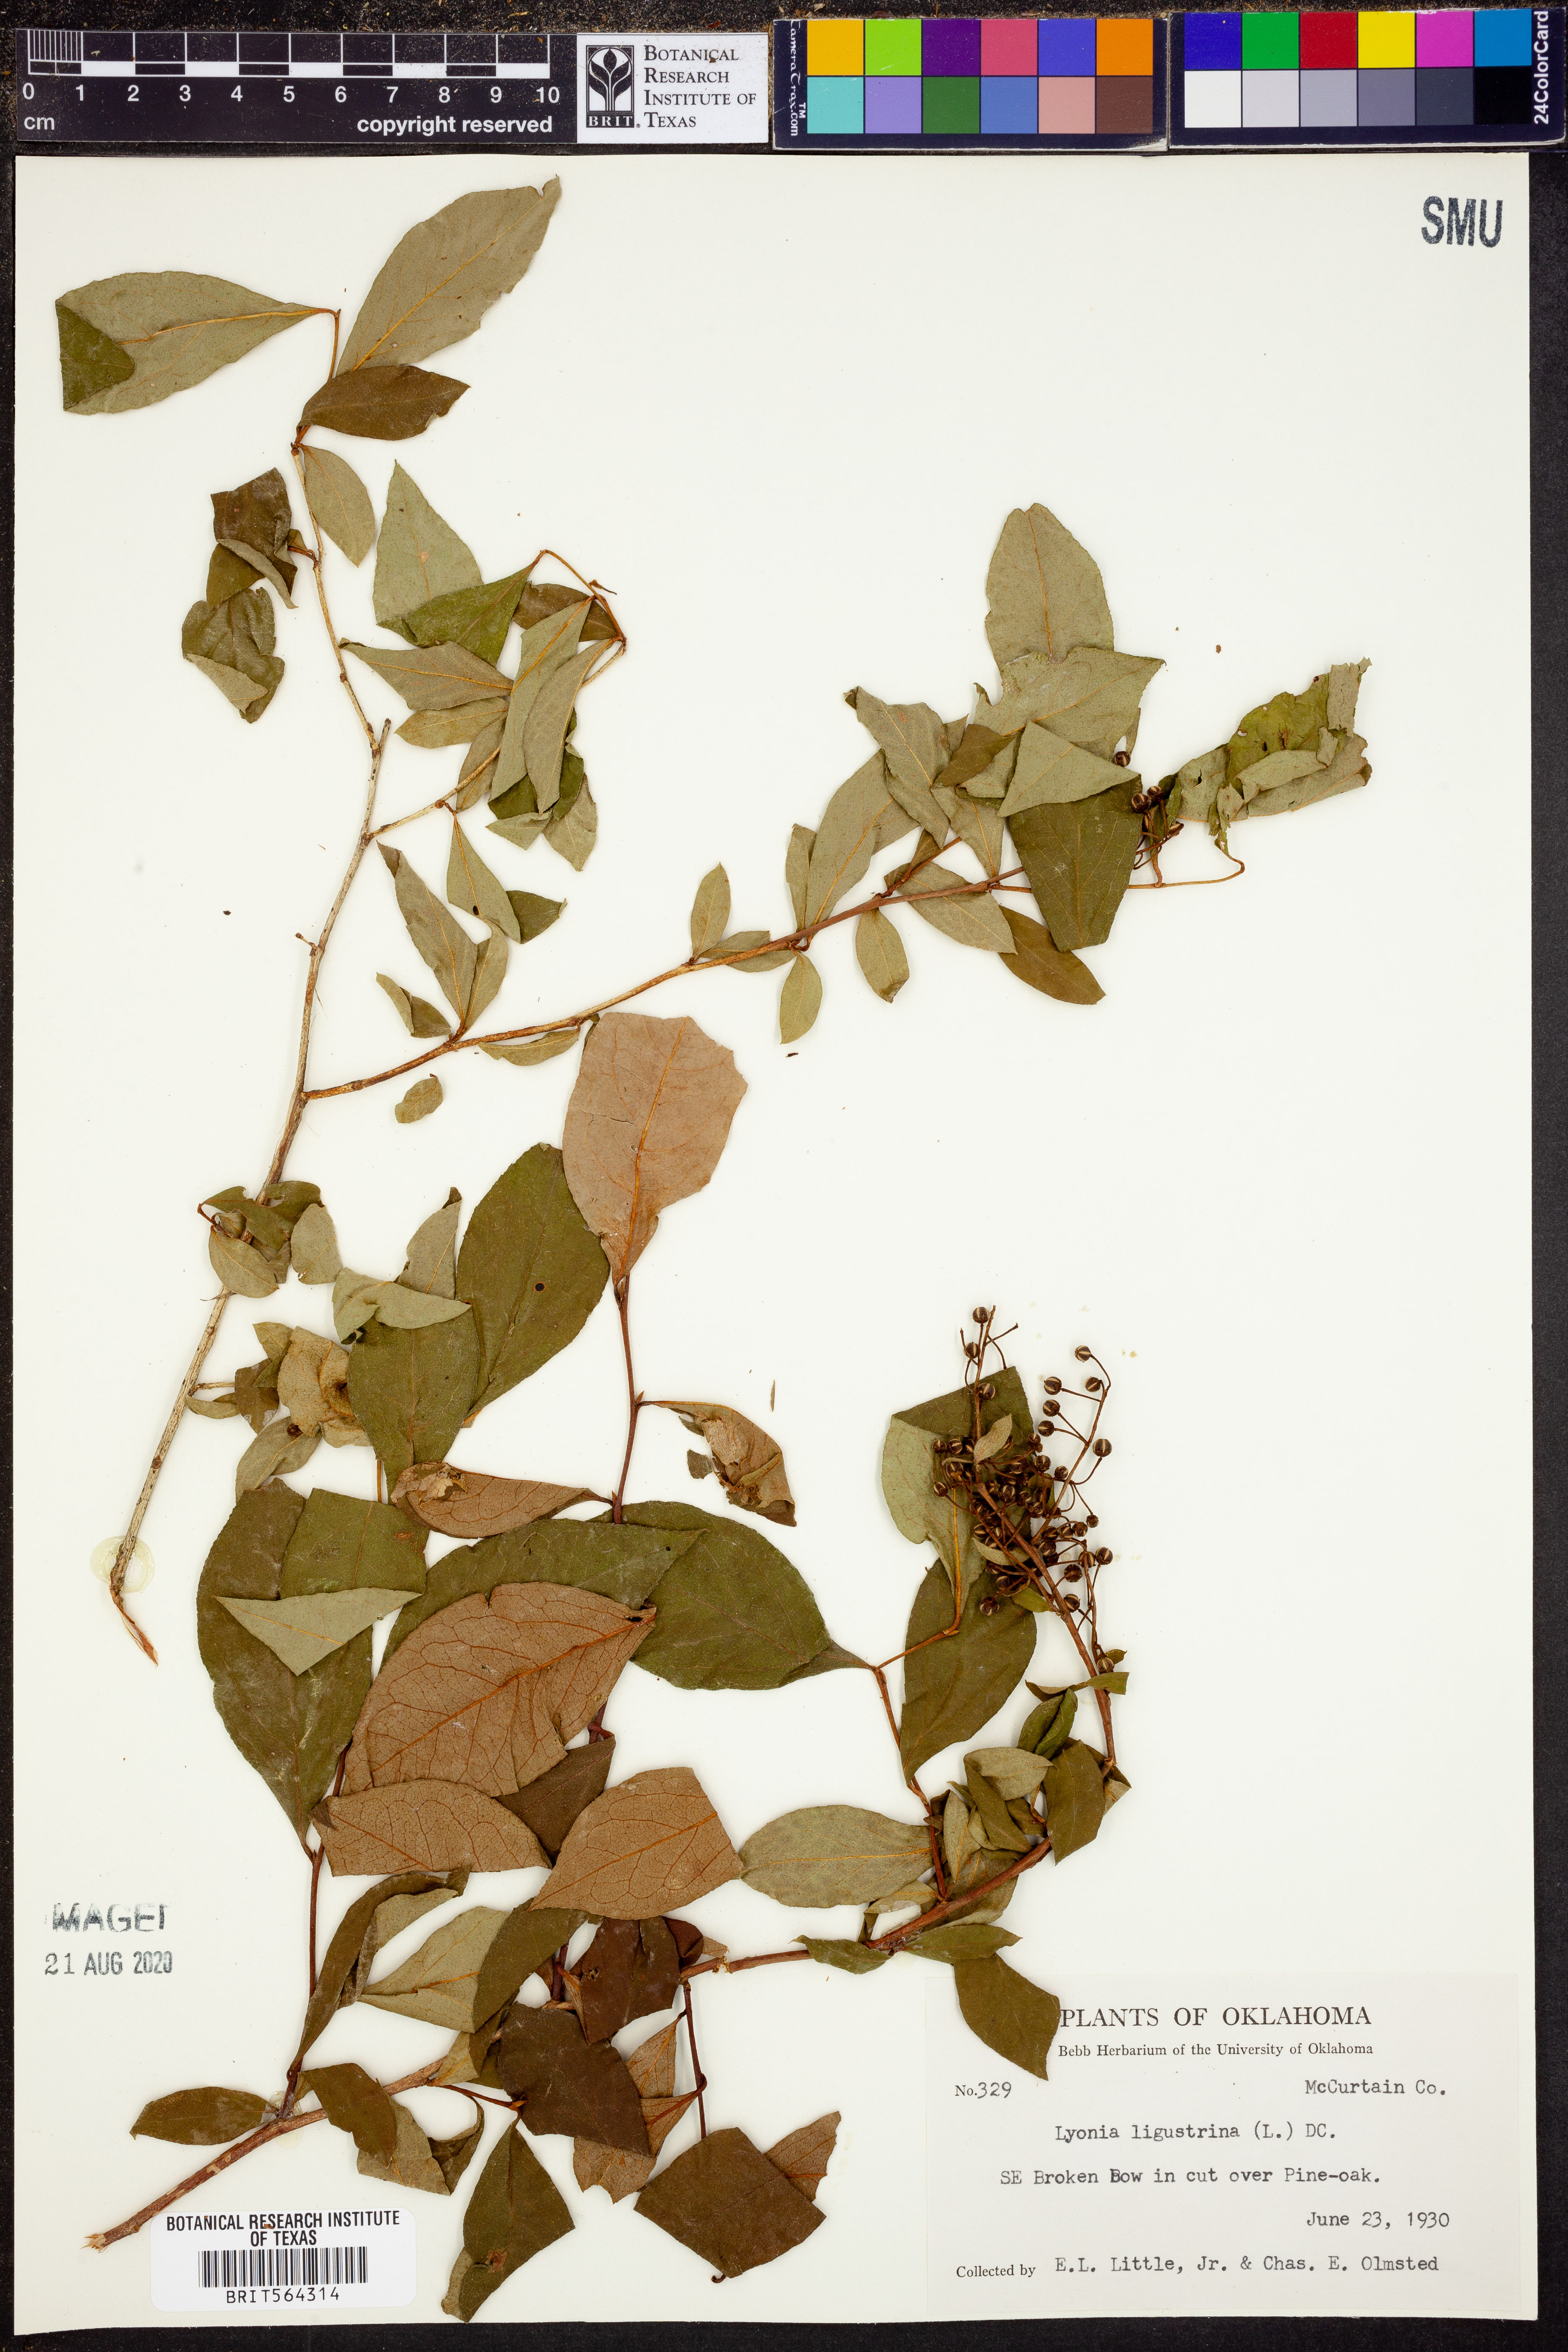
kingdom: Plantae
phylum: Tracheophyta
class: Magnoliopsida
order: Ericales
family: Ericaceae
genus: Lyonia
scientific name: Lyonia ligustrina
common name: Maleberry
